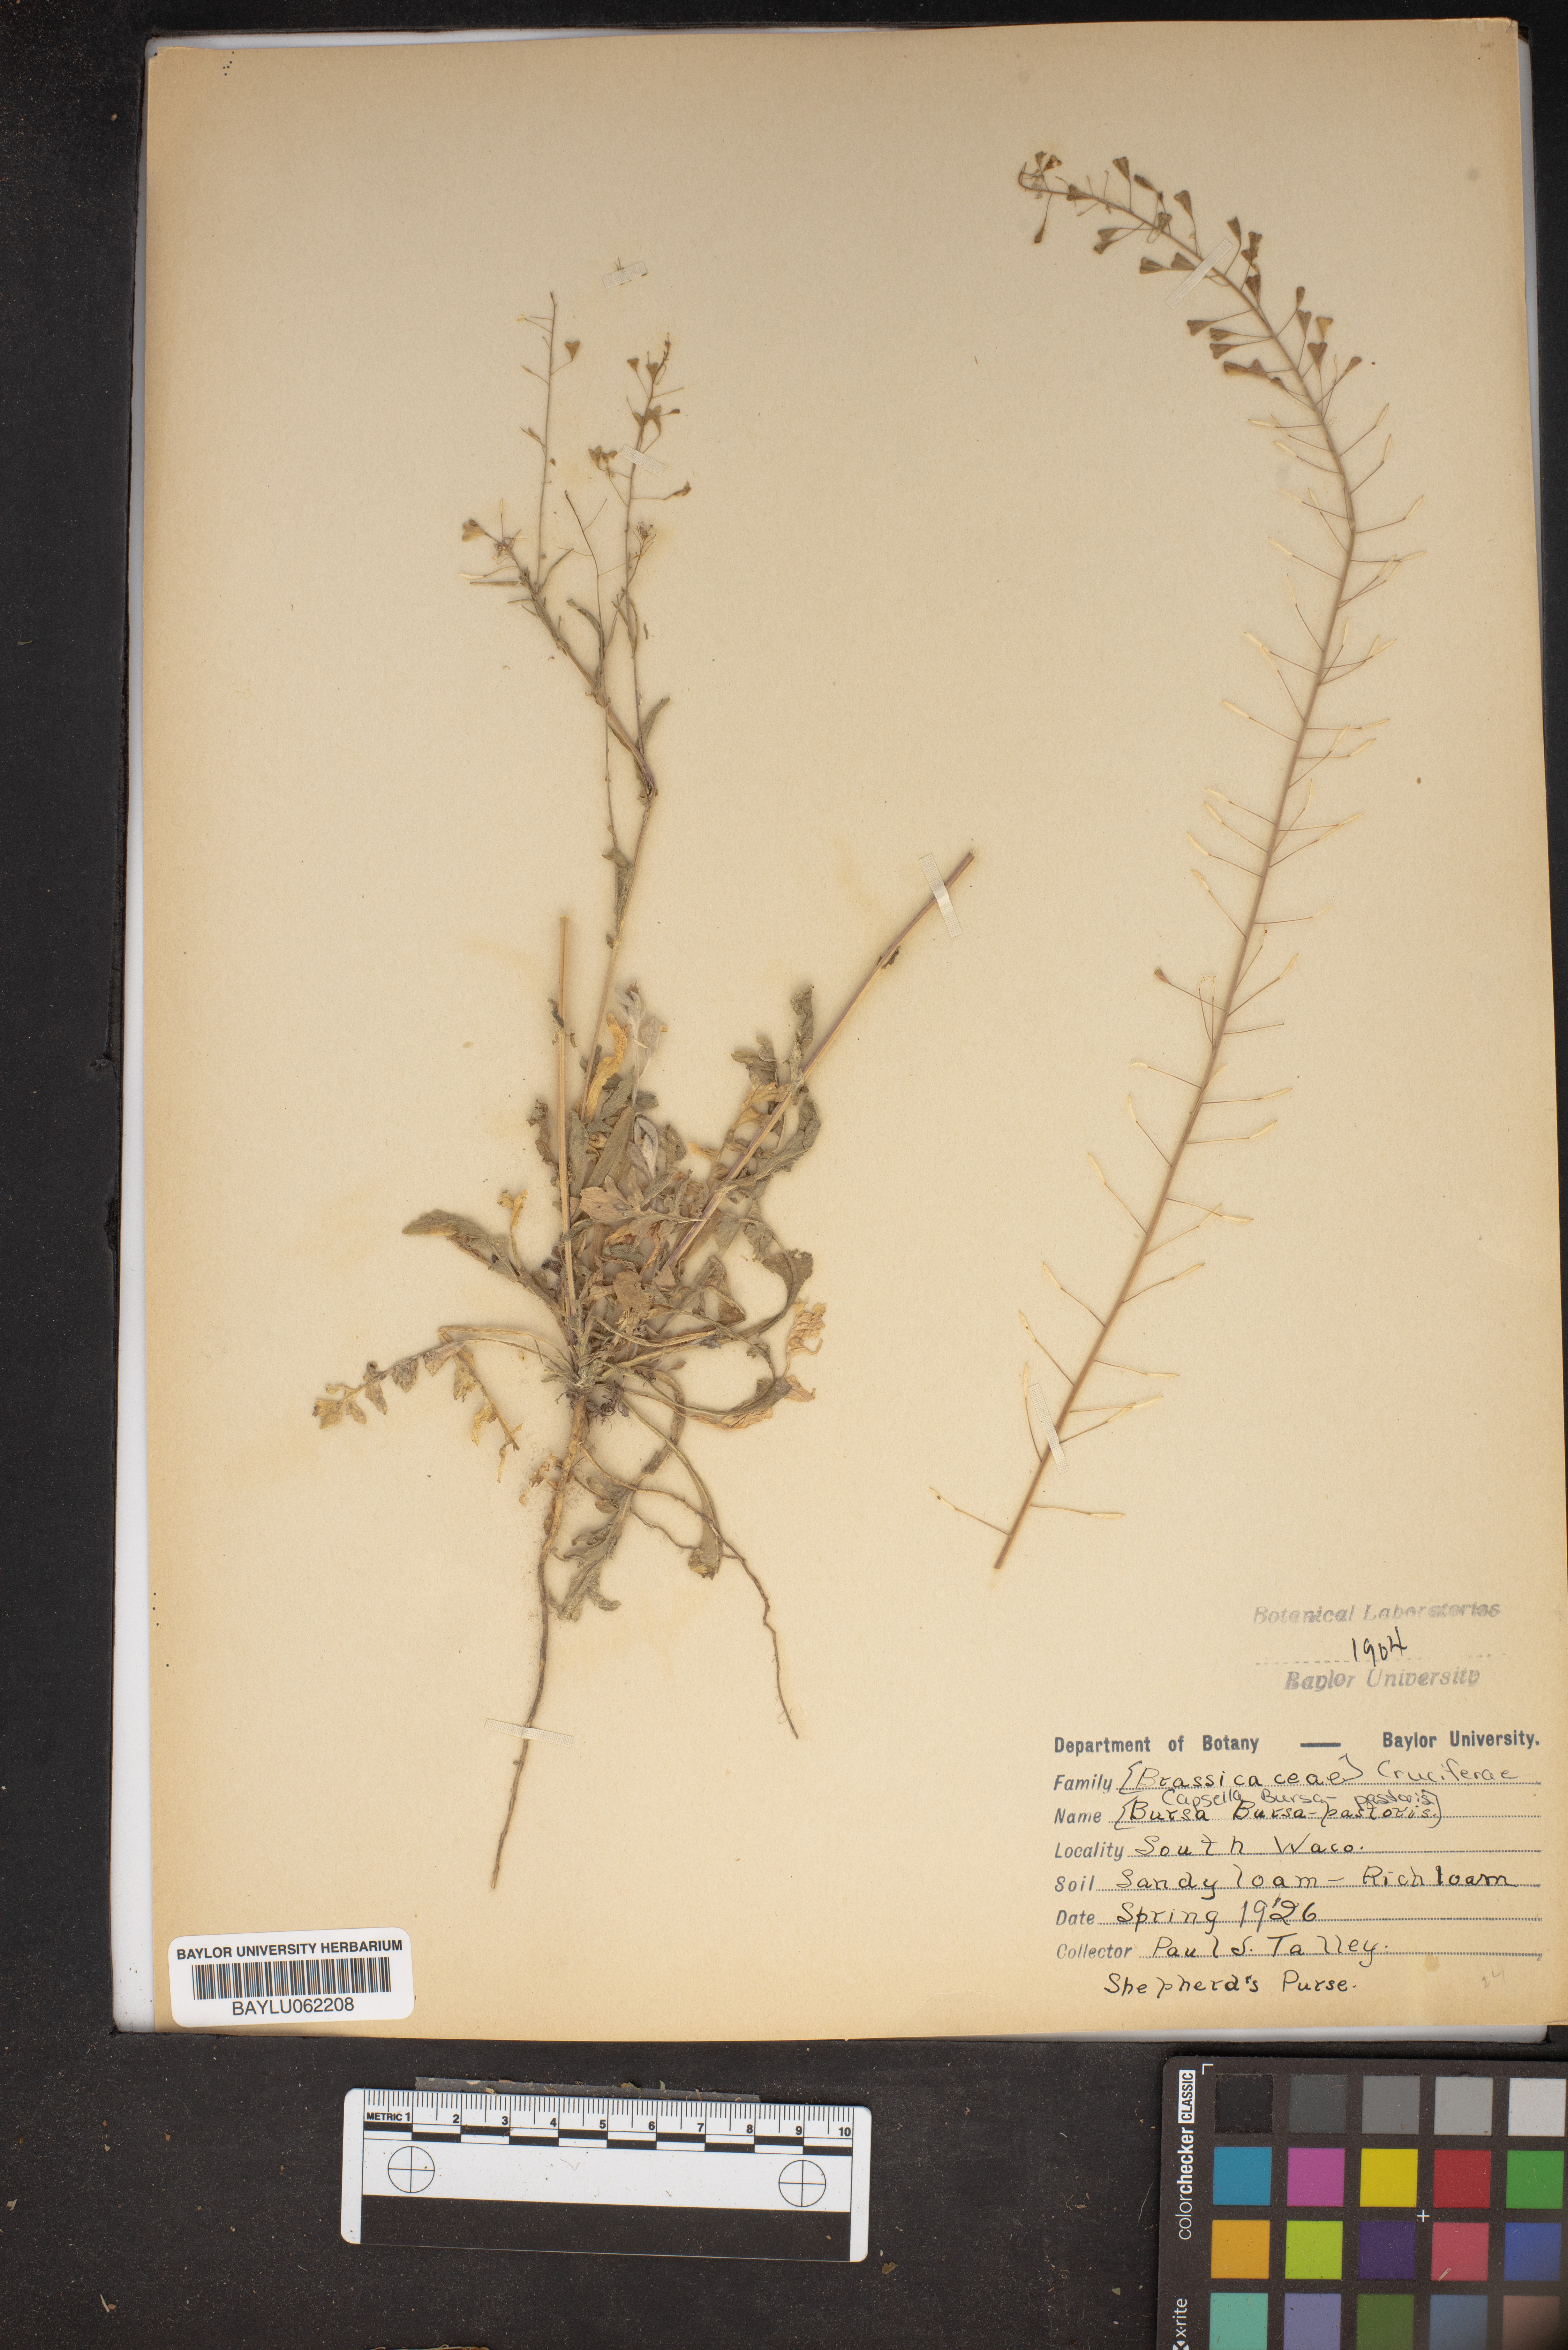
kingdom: Plantae
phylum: Tracheophyta
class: Magnoliopsida
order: Brassicales
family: Brassicaceae
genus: Capsella
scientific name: Capsella bursa-pastoris
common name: Shepherd's purse
